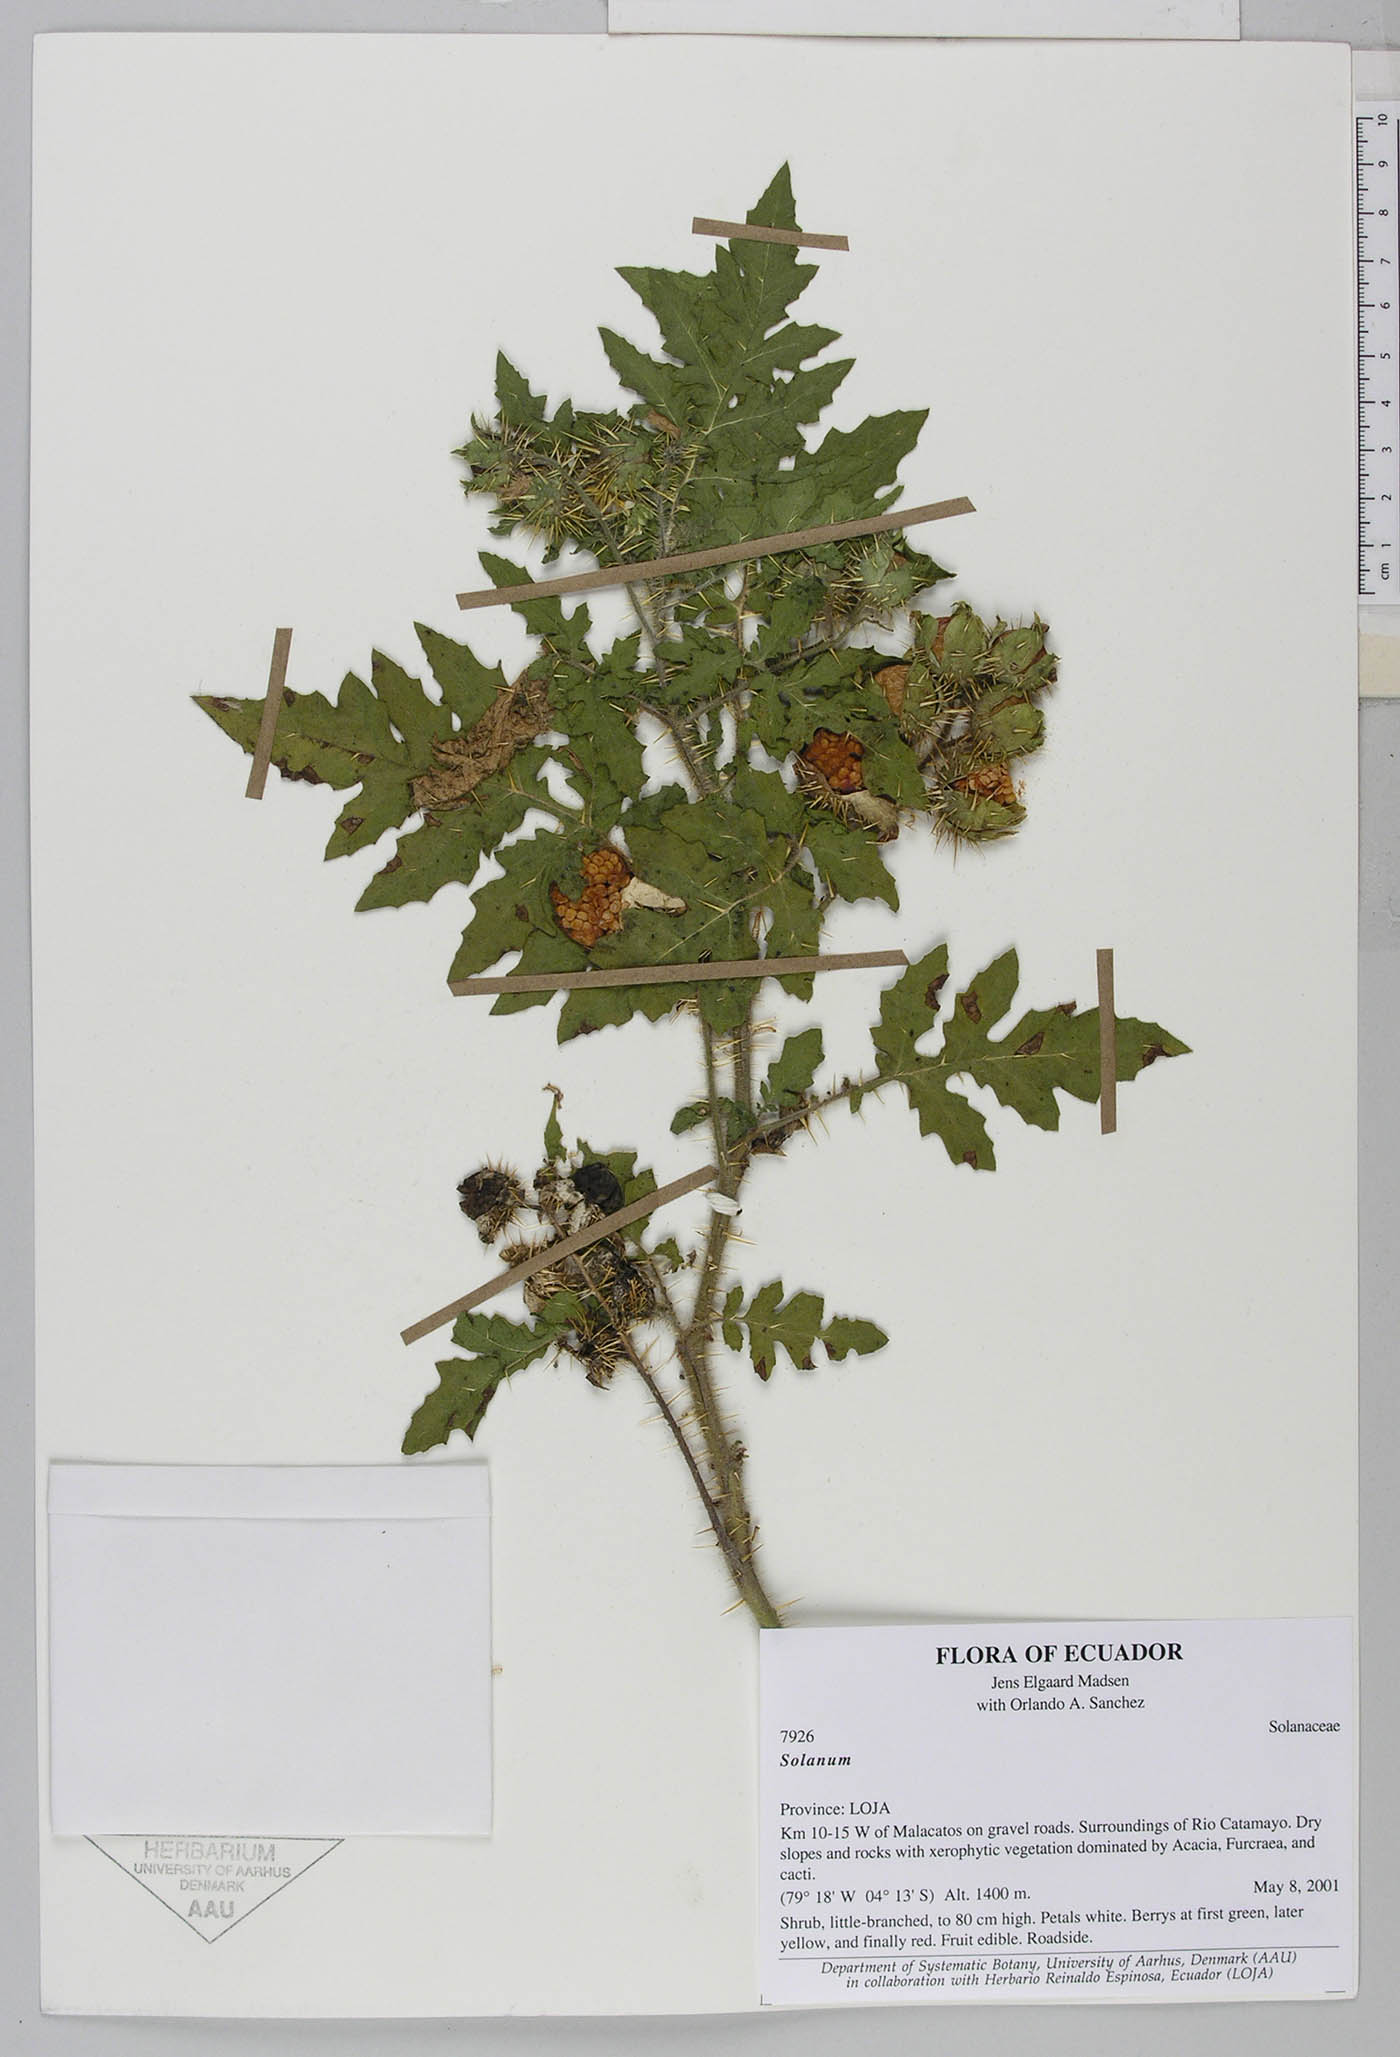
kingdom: Plantae
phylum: Tracheophyta
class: Magnoliopsida
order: Solanales
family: Solanaceae
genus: Solanum
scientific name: Solanum sisymbriifolium
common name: Red buffalo-bur
